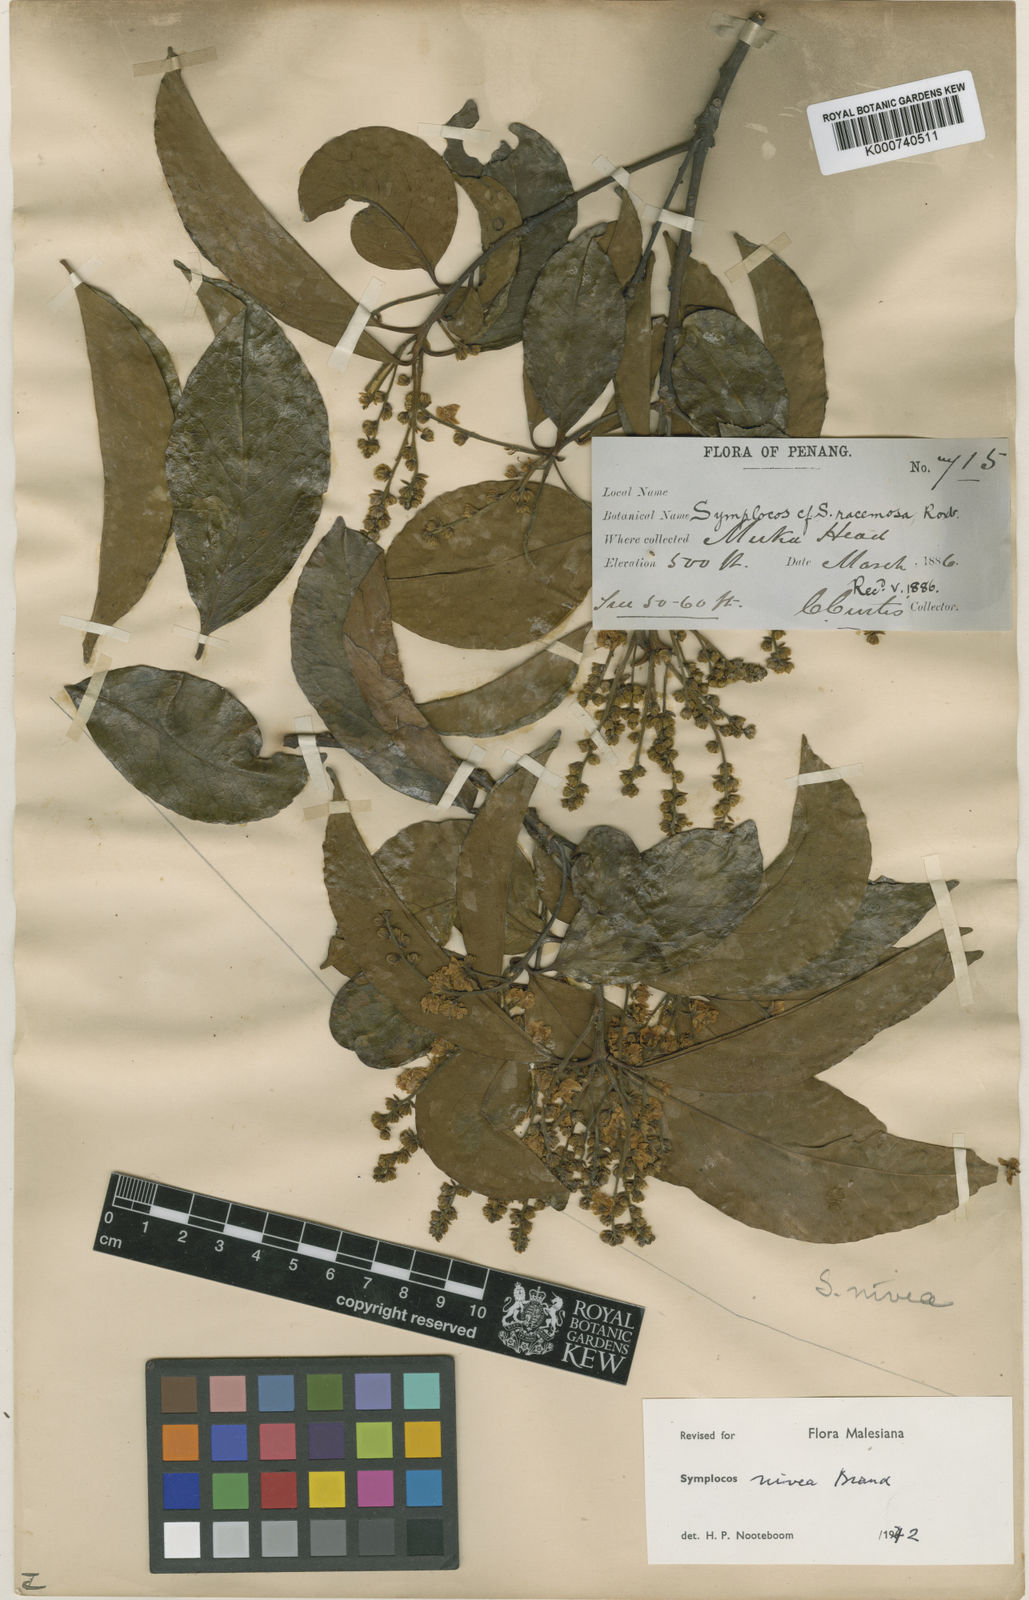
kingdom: Plantae
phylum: Tracheophyta
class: Magnoliopsida
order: Ericales
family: Symplocaceae
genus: Symplocos
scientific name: Symplocos nivea
